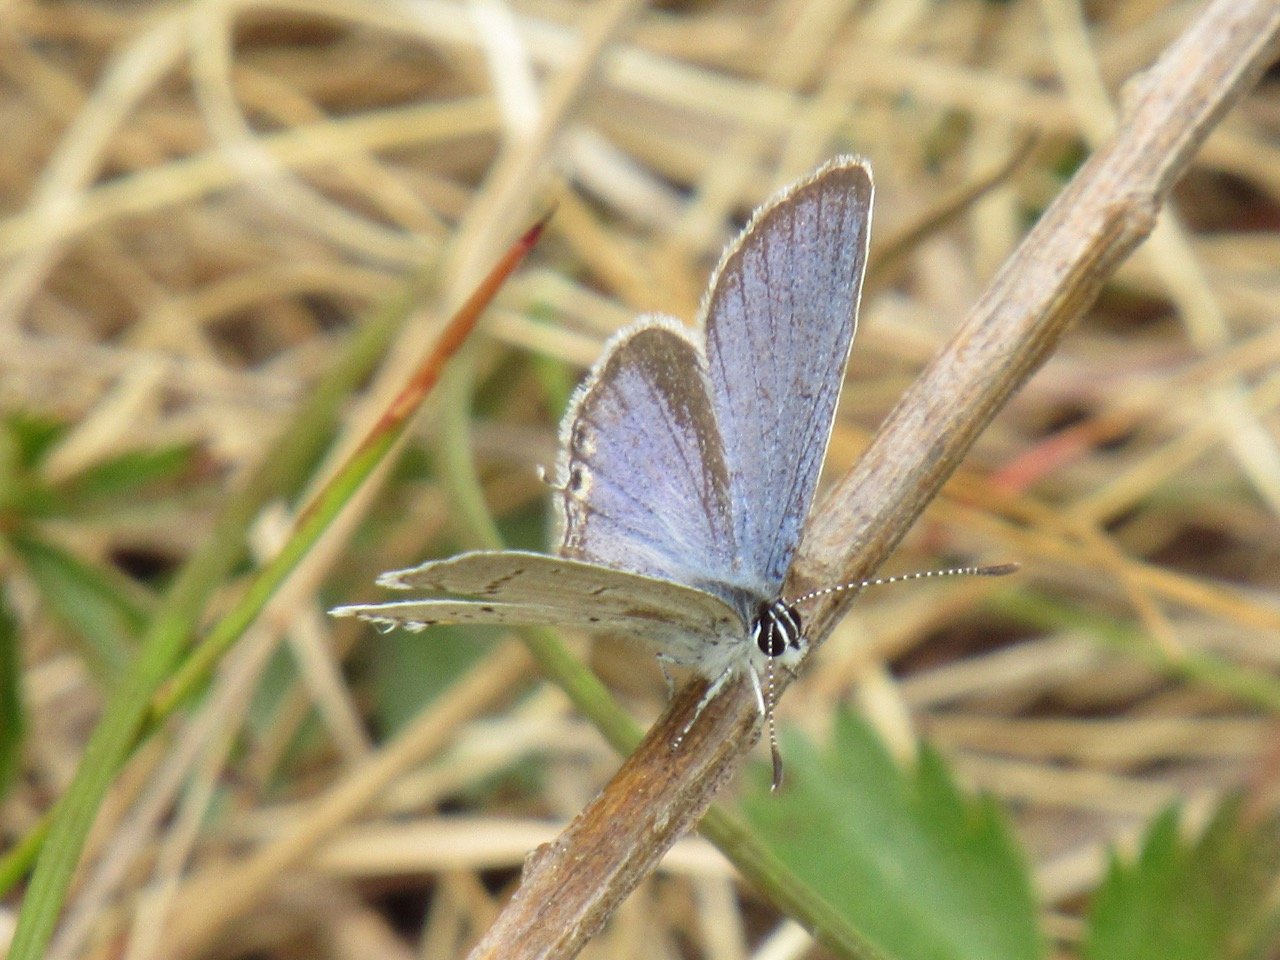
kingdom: Animalia
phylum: Arthropoda
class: Insecta
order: Lepidoptera
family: Lycaenidae
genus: Elkalyce
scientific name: Elkalyce comyntas
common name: Eastern Tailed-Blue
